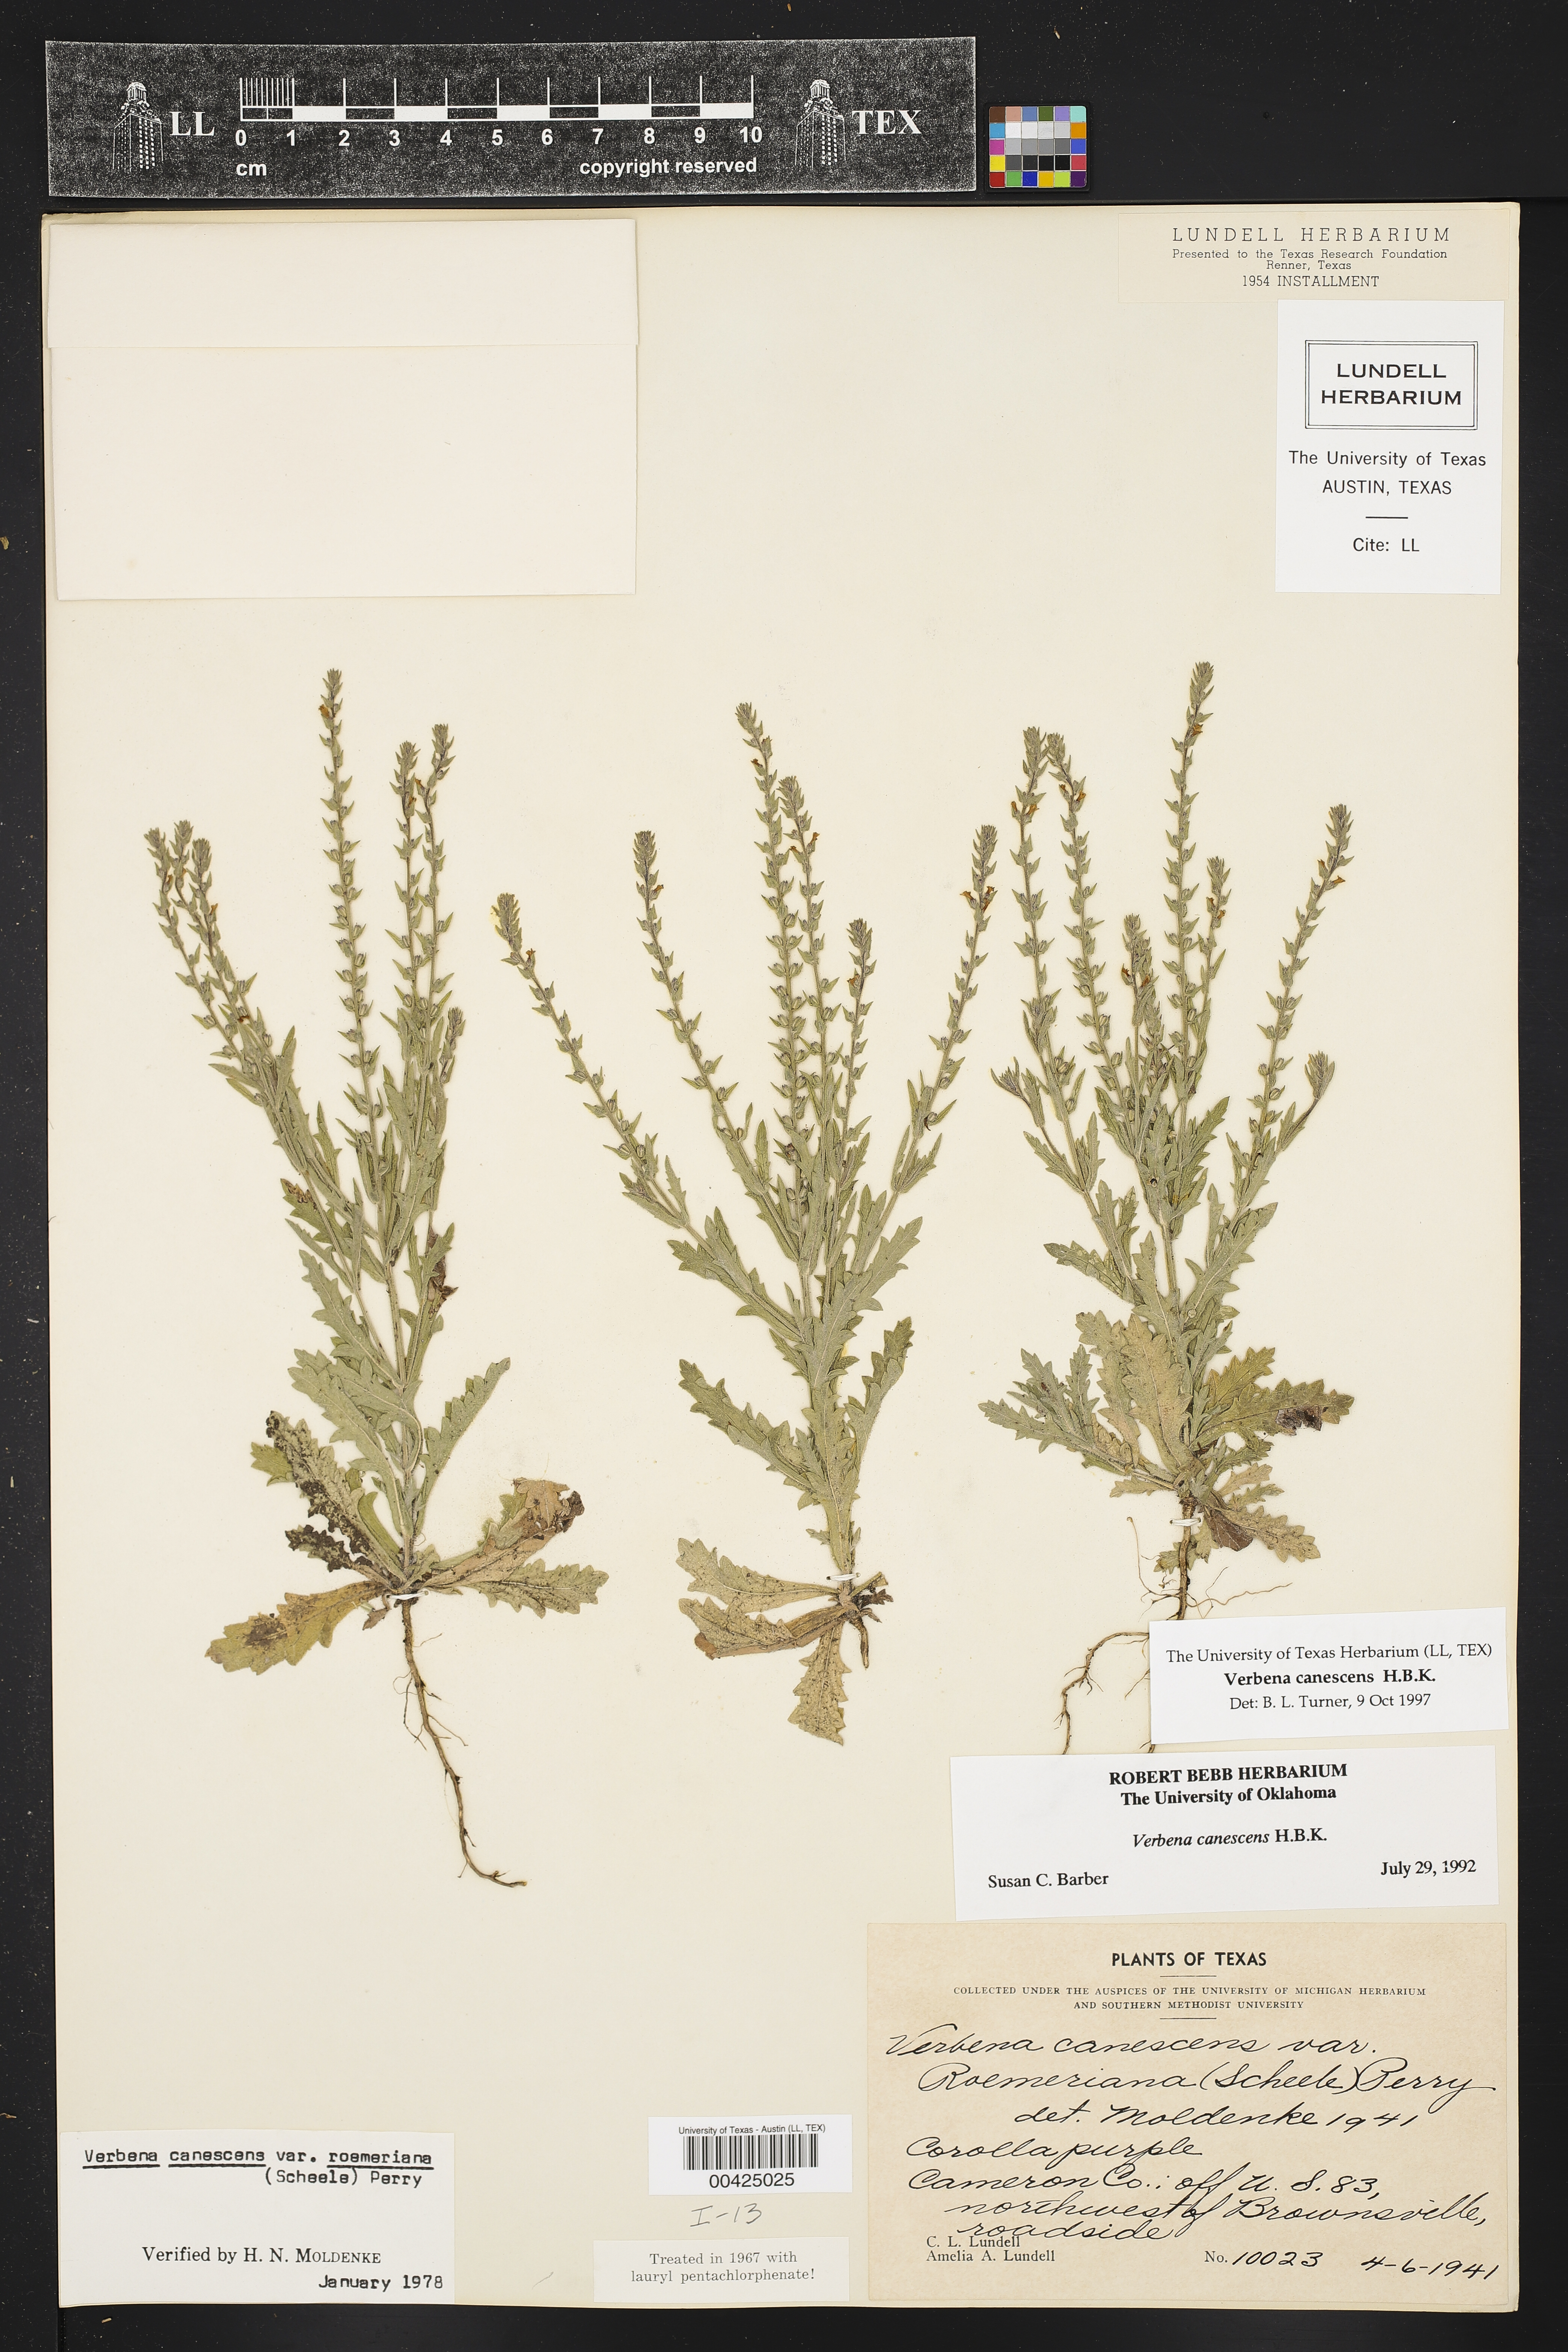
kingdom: Plantae
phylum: Tracheophyta
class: Magnoliopsida
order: Lamiales
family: Verbenaceae
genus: Verbena
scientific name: Verbena canescens
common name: Gray vervain
